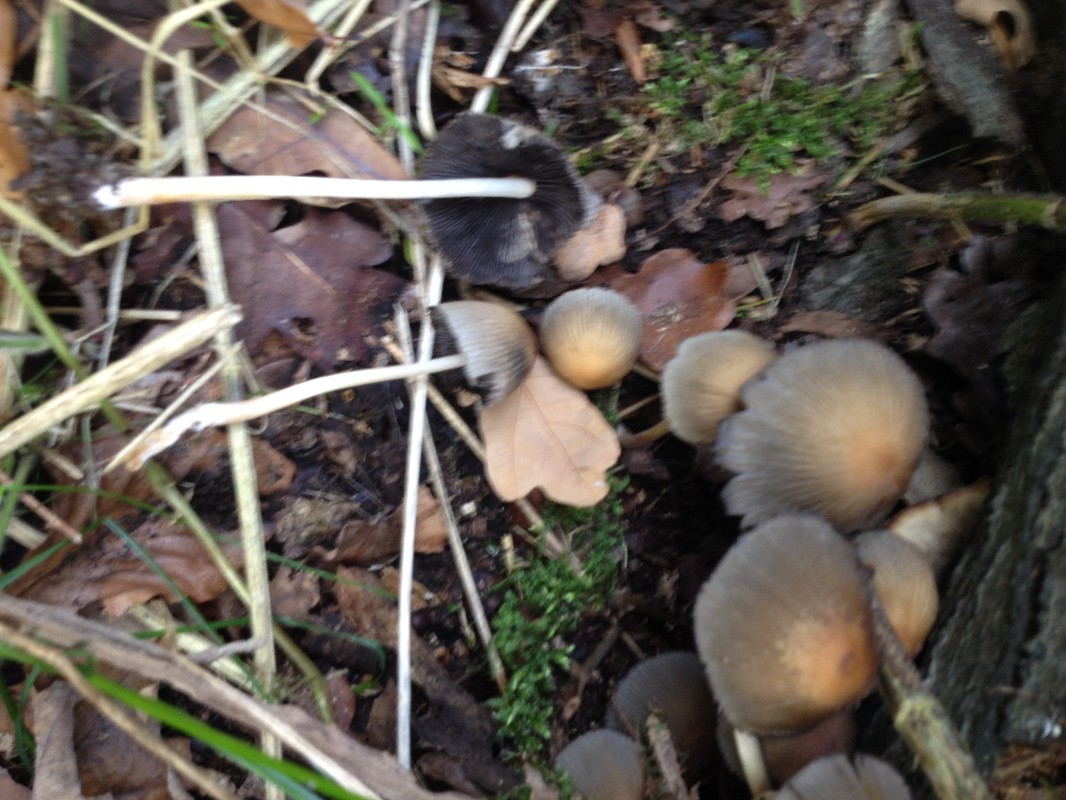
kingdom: Fungi
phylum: Basidiomycota
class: Agaricomycetes
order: Agaricales
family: Psathyrellaceae
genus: Coprinellus
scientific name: Coprinellus micaceus
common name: glimmer-blækhat
